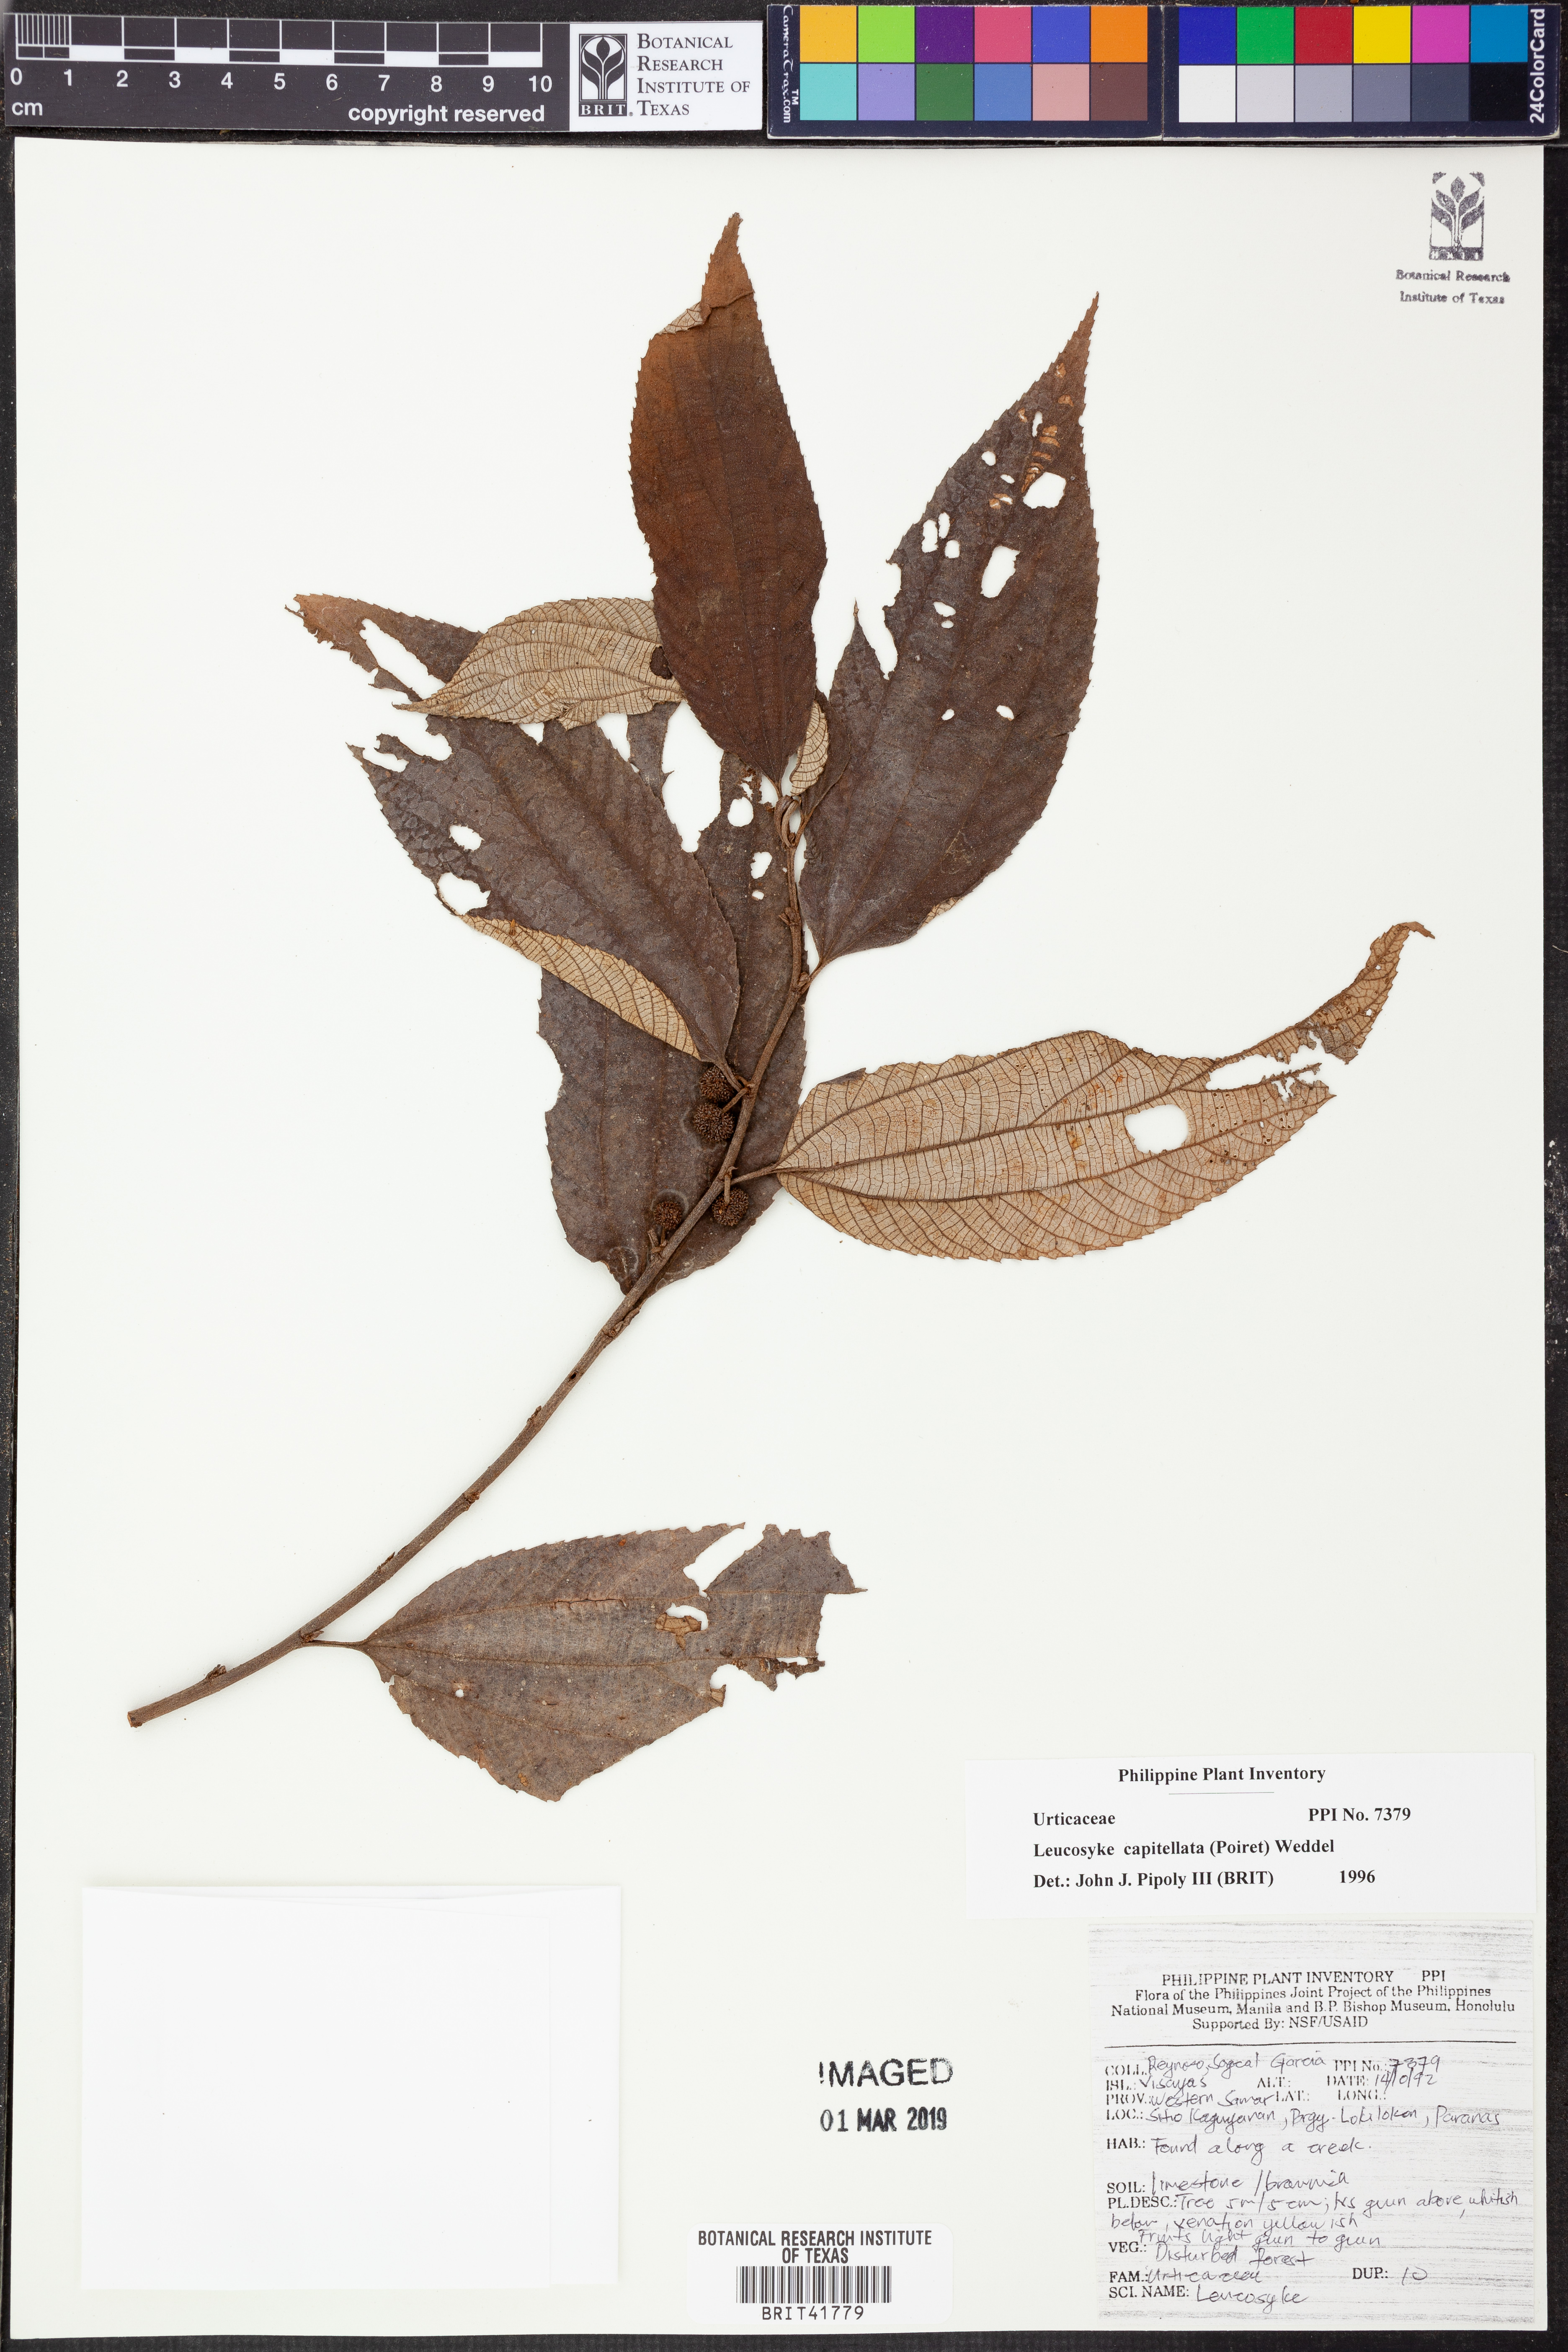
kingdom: Plantae
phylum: Tracheophyta
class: Magnoliopsida
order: Rosales
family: Urticaceae
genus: Leucosyke
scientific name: Leucosyke capitellata
